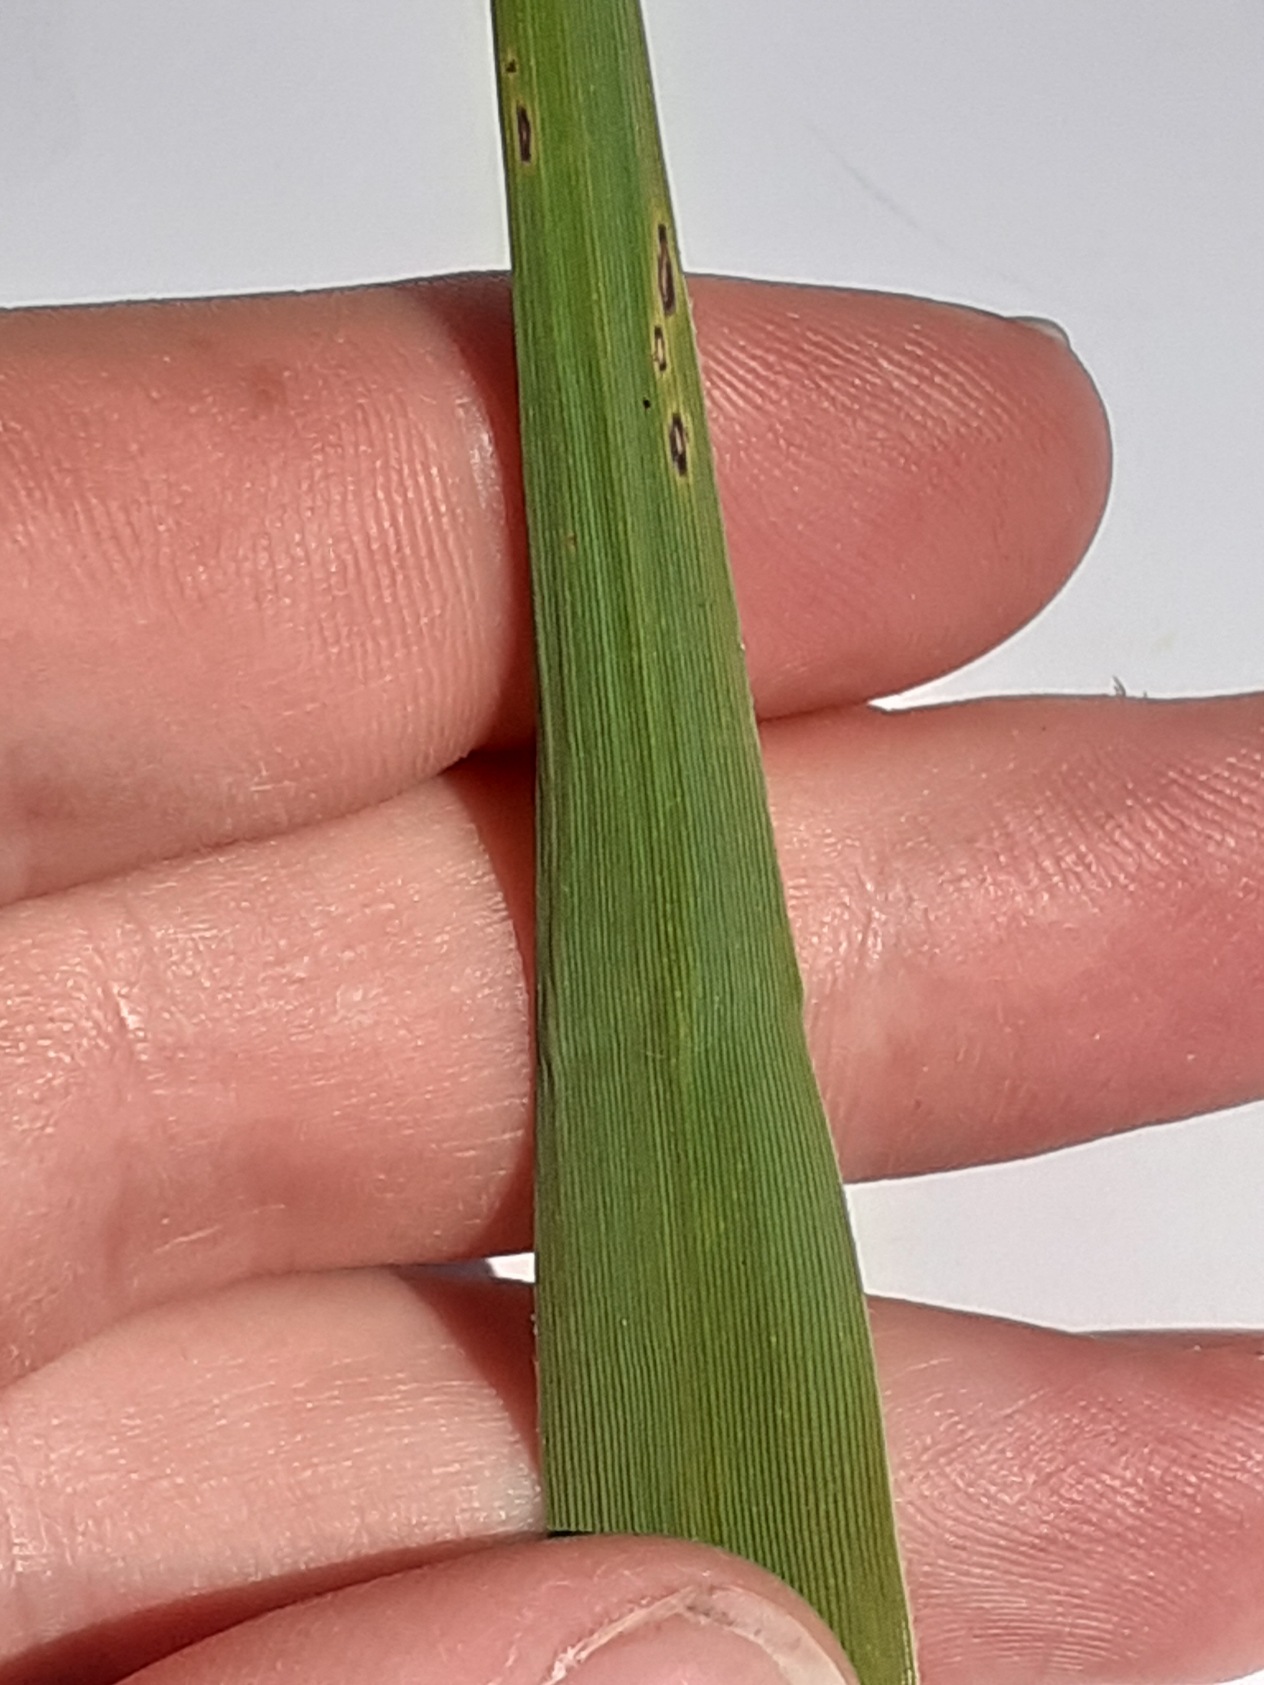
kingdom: Plantae
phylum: Tracheophyta
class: Liliopsida
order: Poales
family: Poaceae
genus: Phragmites
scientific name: Phragmites australis
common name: Tagrør
